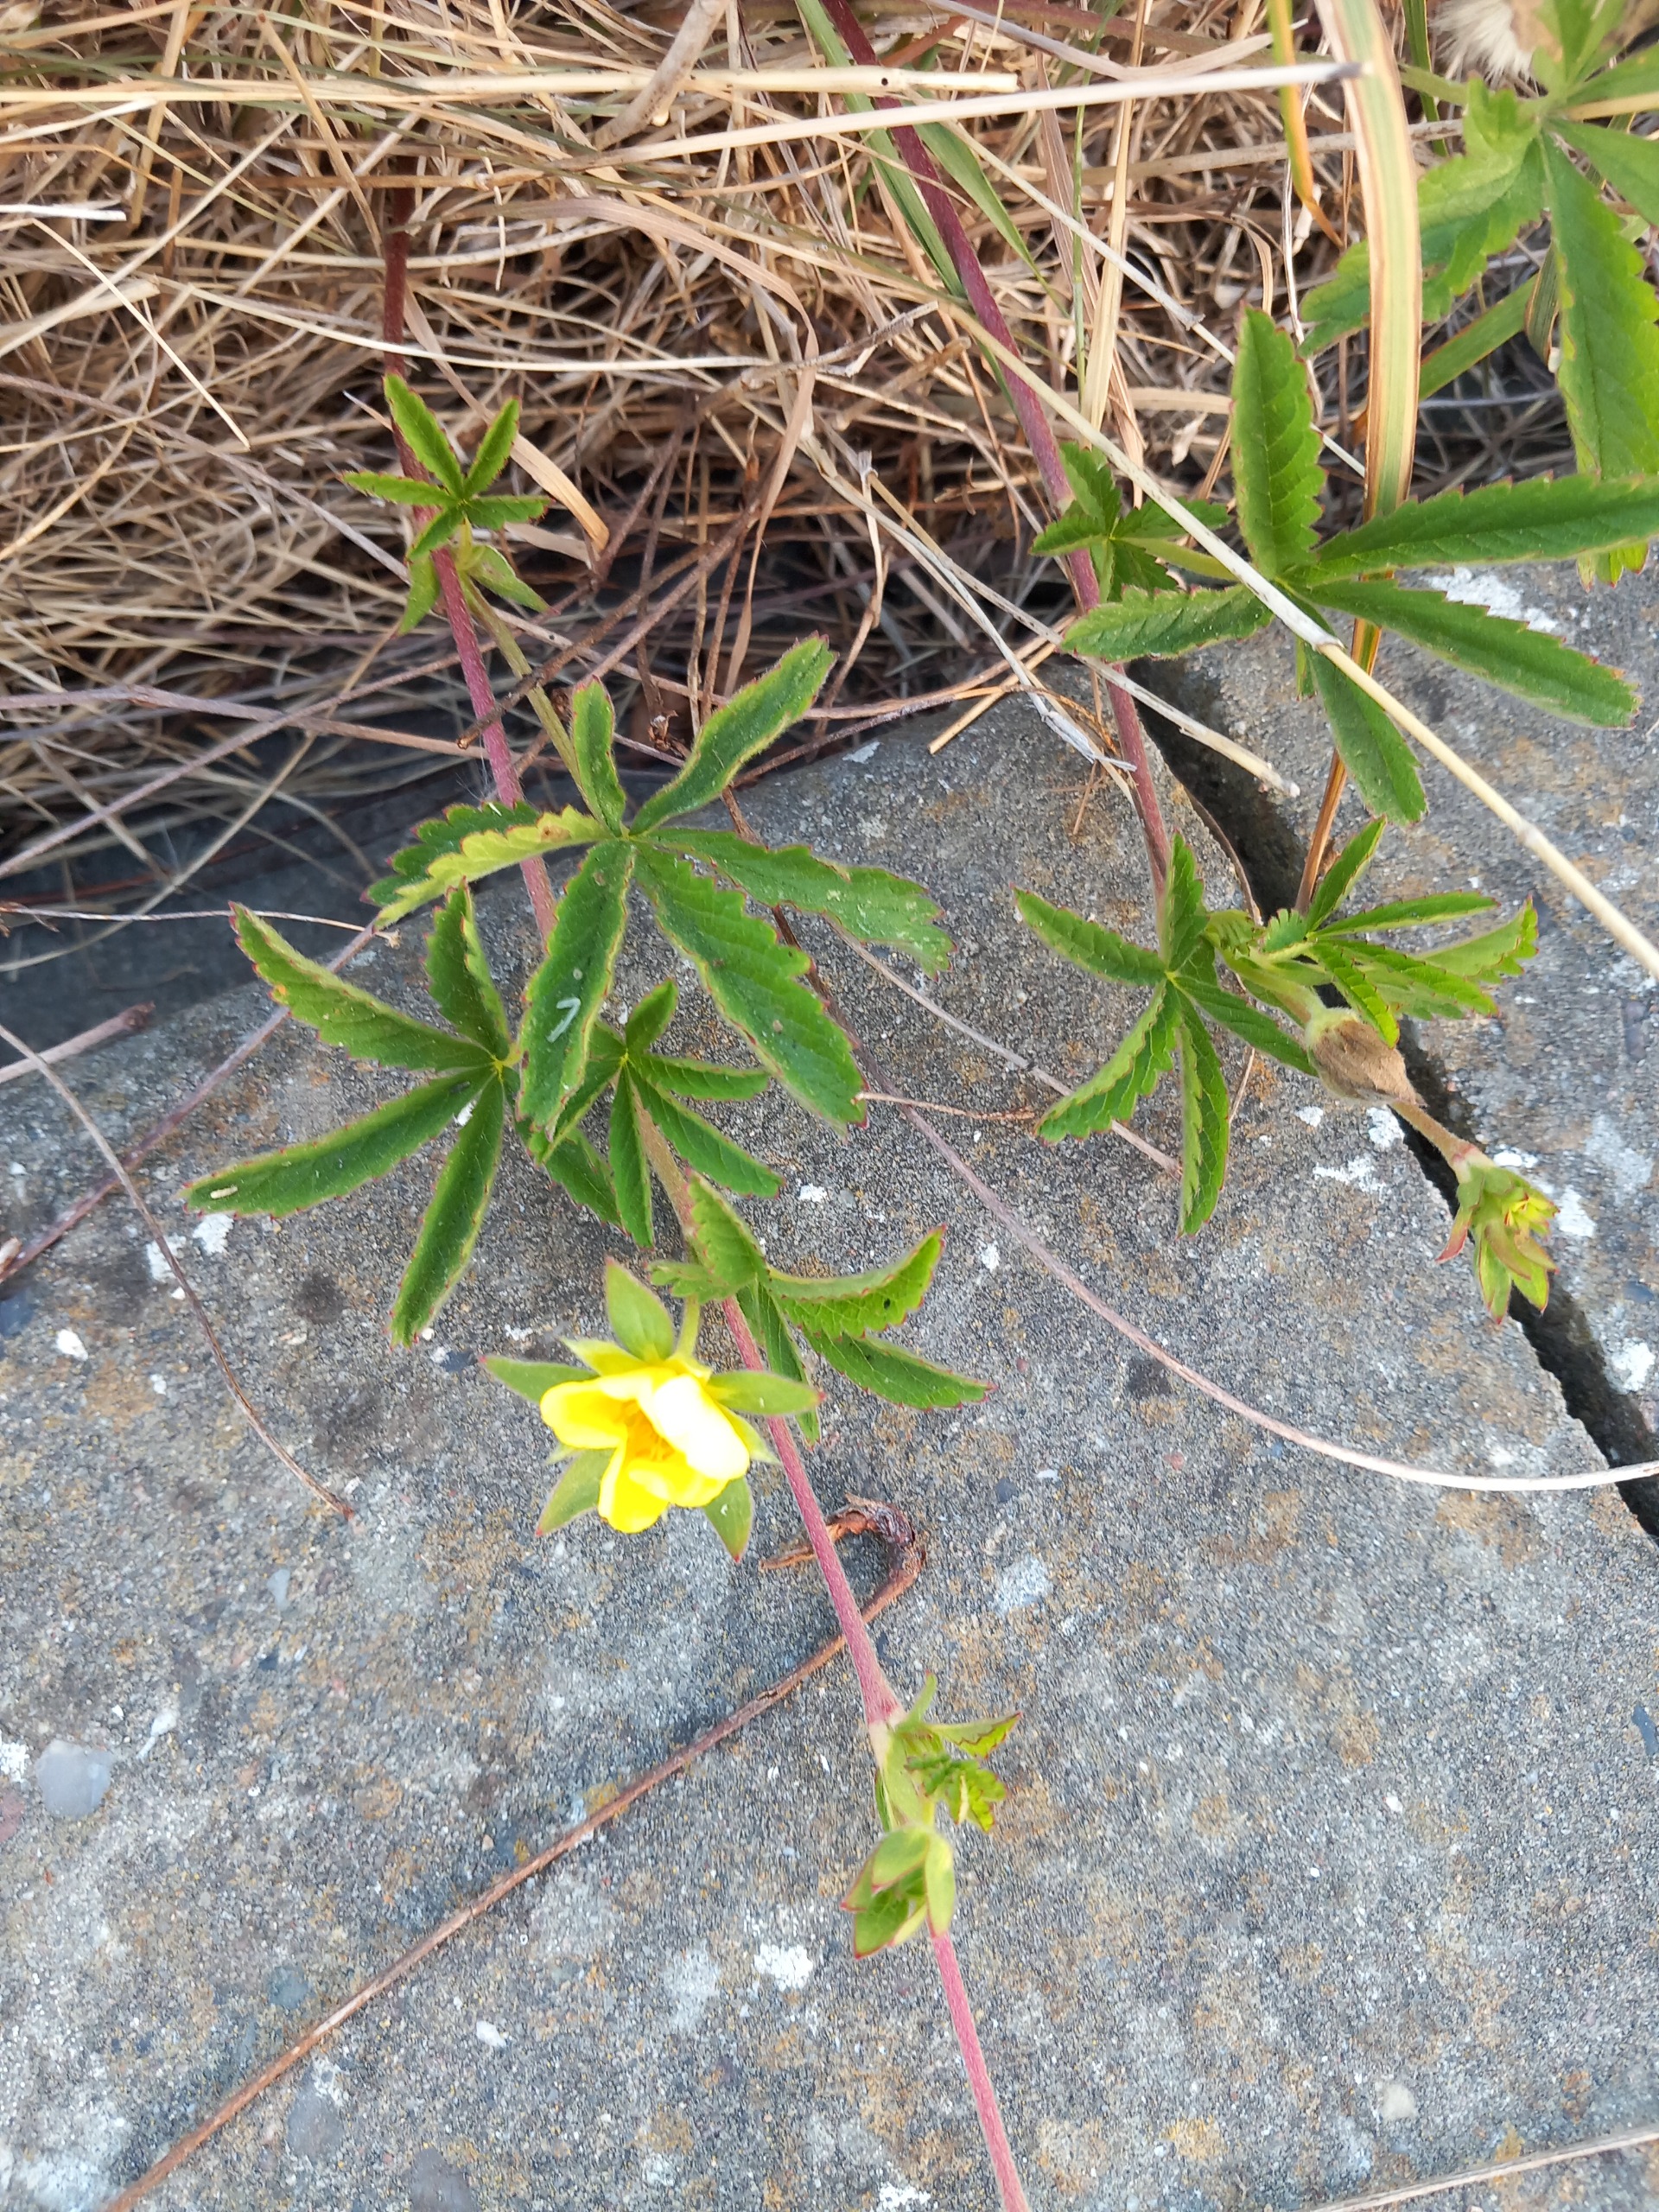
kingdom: Plantae
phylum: Tracheophyta
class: Magnoliopsida
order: Rosales
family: Rosaceae
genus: Potentilla
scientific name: Potentilla reptans
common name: Krybende potentil
